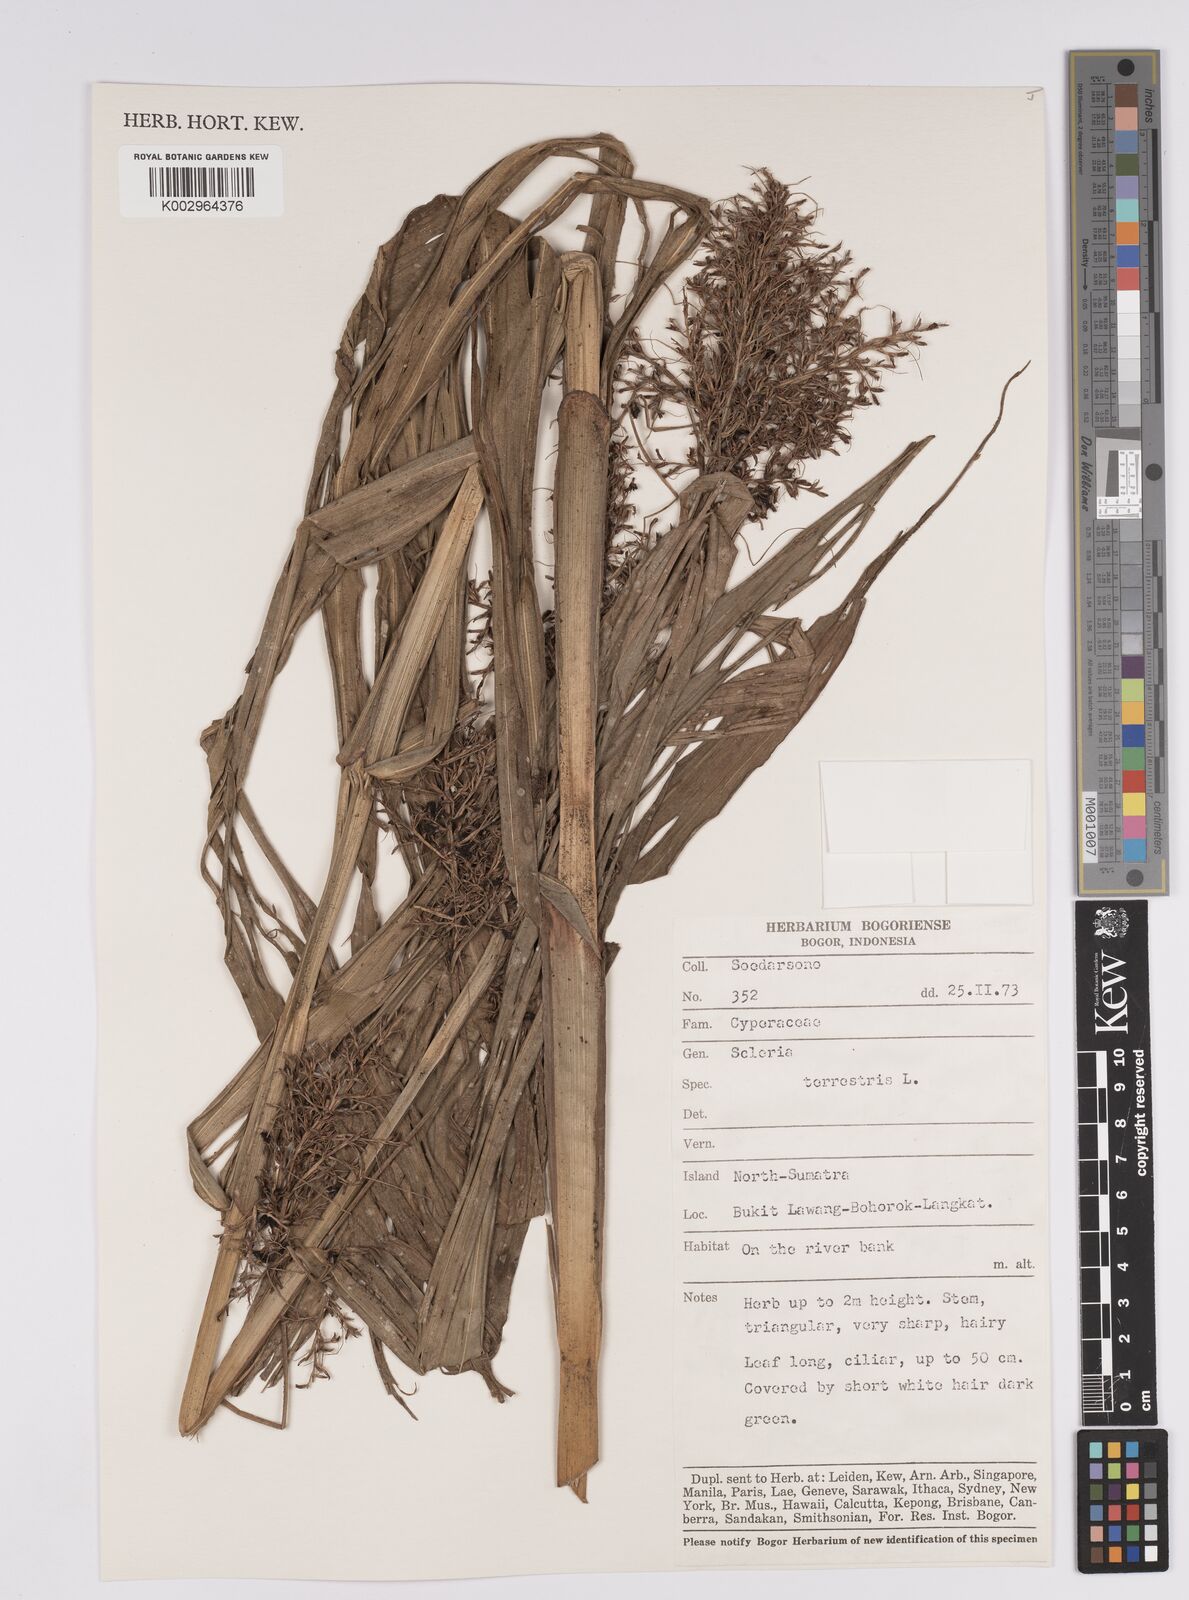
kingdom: Plantae
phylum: Tracheophyta
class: Liliopsida
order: Poales
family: Cyperaceae
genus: Scleria
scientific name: Scleria terrestris
